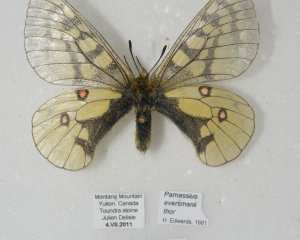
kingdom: Animalia
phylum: Arthropoda
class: Insecta
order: Lepidoptera
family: Papilionidae
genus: Parnassius
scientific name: Parnassius eversmanni
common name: Eversmann's Parnassian
